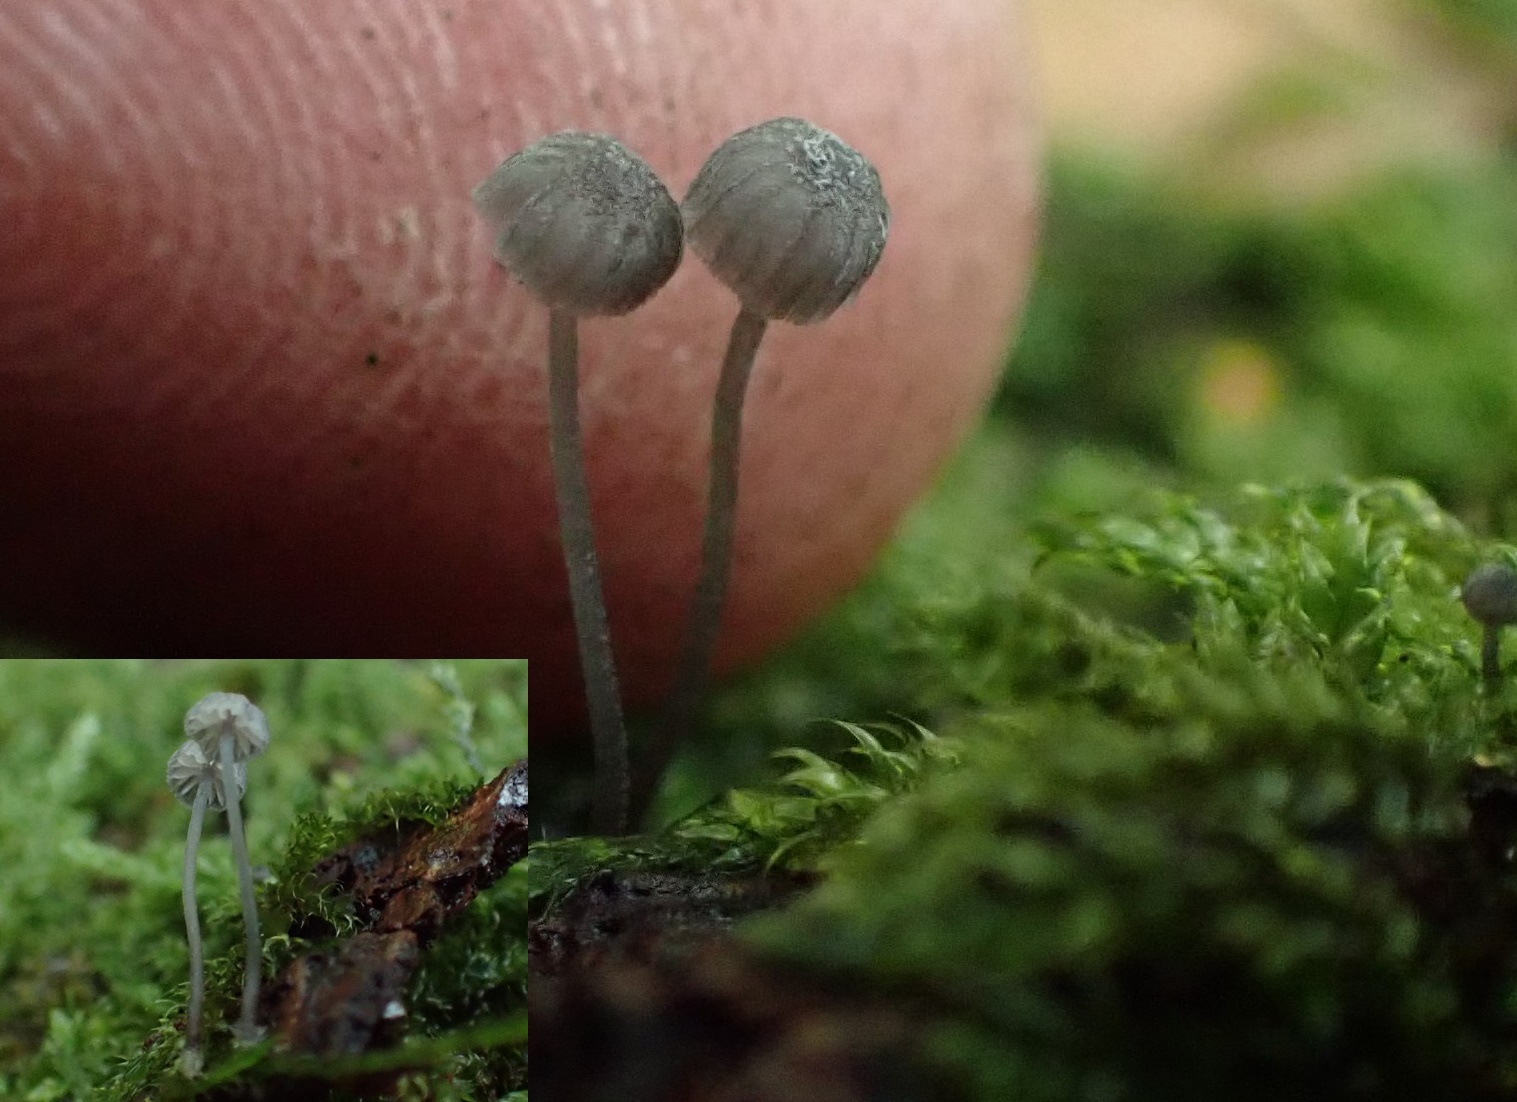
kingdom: Fungi
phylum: Basidiomycota
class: Agaricomycetes
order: Agaricales
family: Mycenaceae
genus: Mycena
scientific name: Mycena pseudocorticola
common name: gråblå bark-huesvamp
